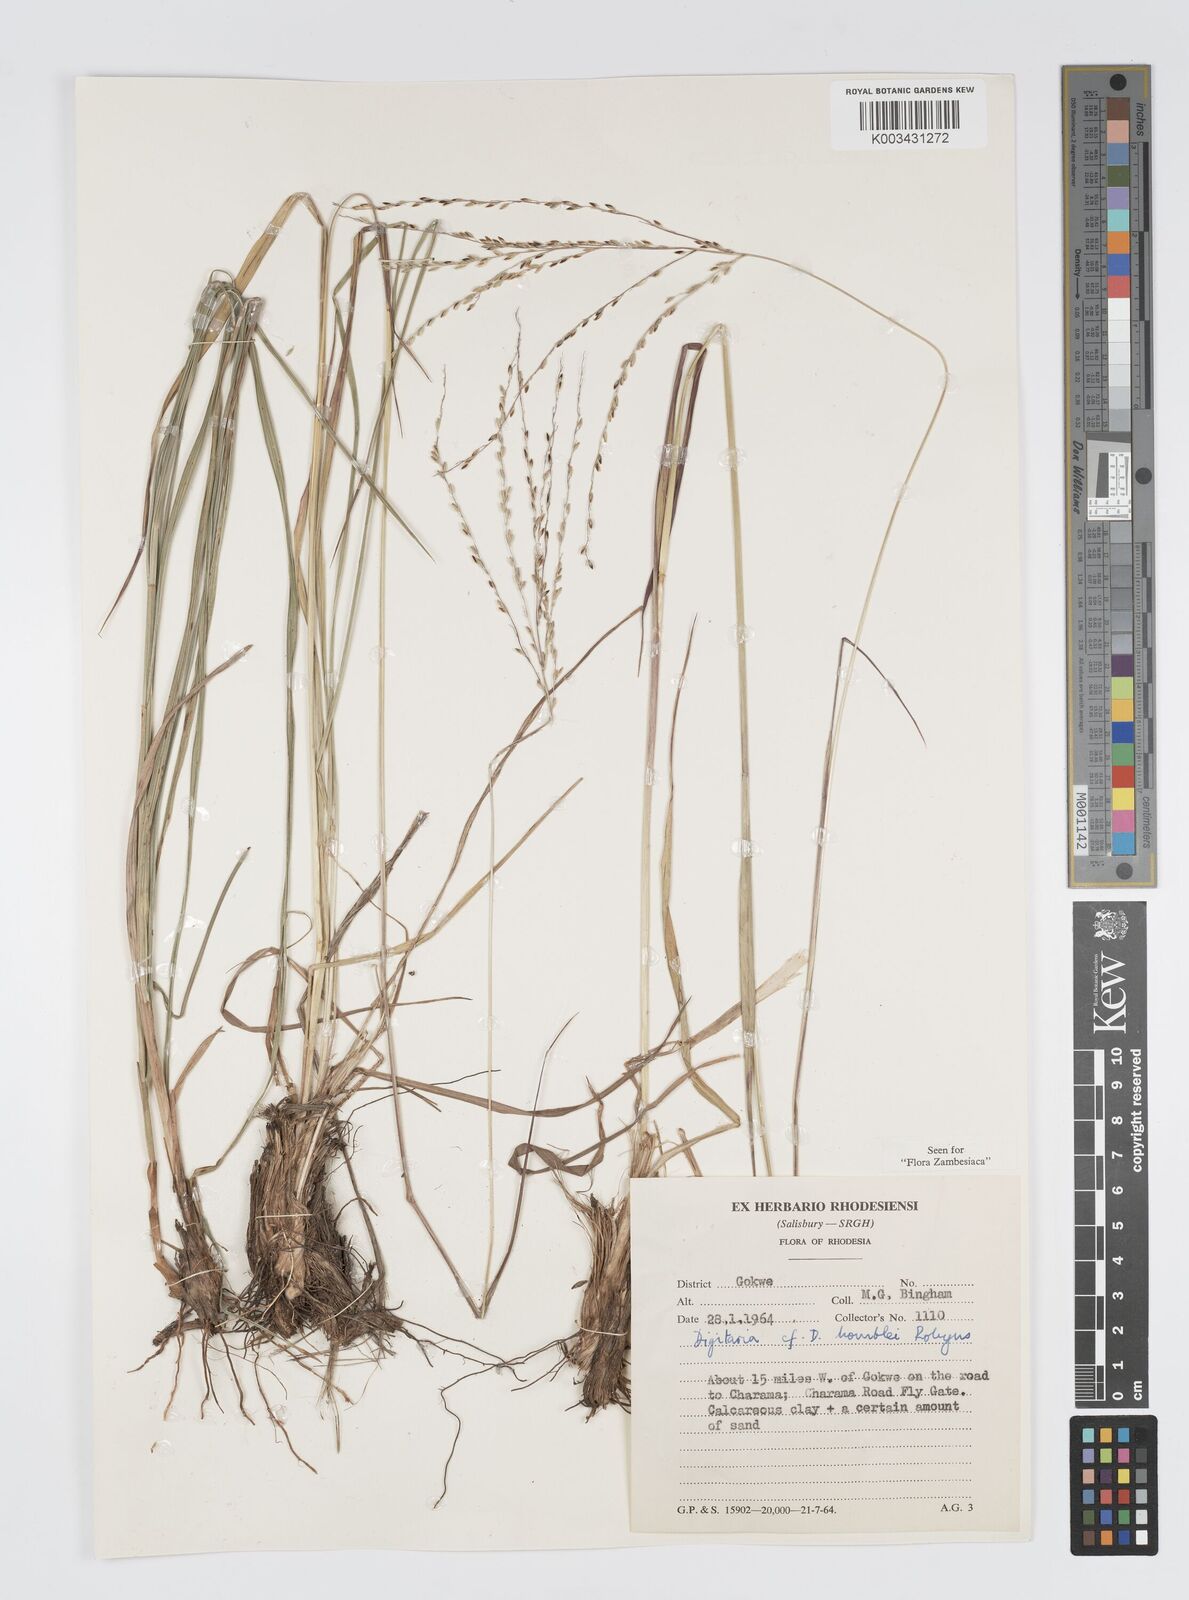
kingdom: Plantae
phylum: Tracheophyta
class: Liliopsida
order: Poales
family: Poaceae
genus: Digitaria
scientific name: Digitaria compressa
